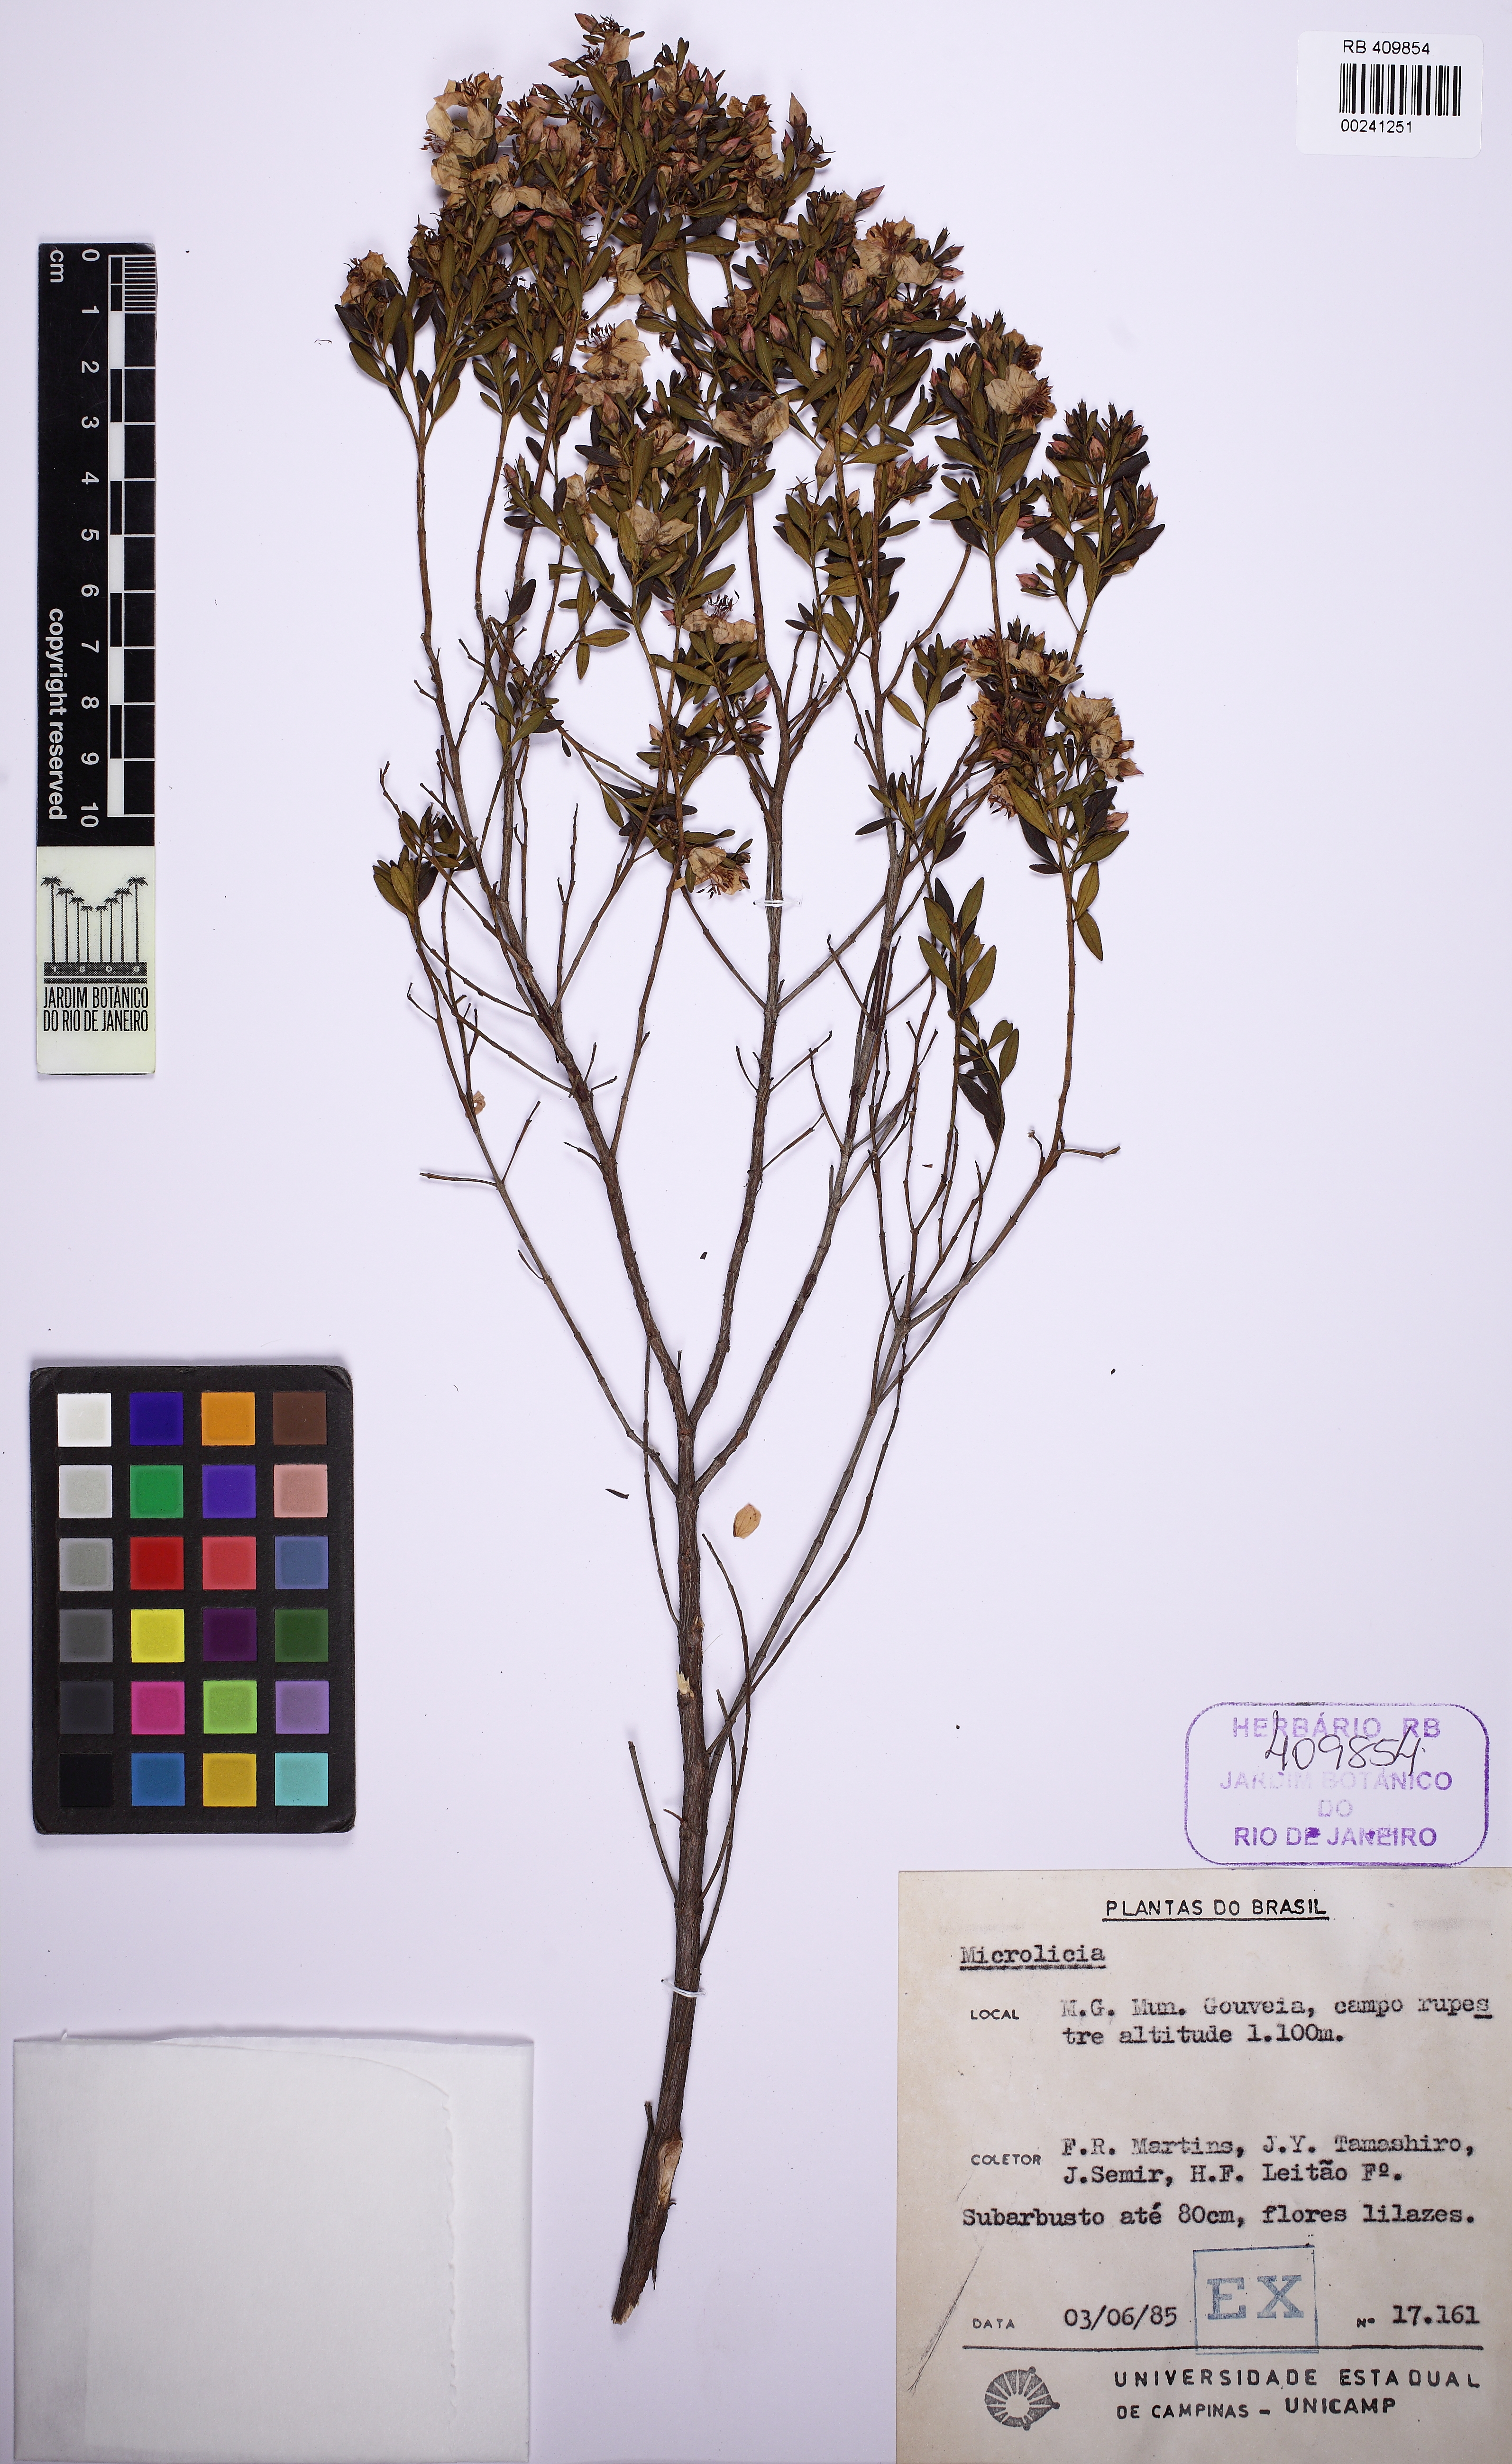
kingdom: Plantae
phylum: Tracheophyta
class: Magnoliopsida
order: Myrtales
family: Melastomataceae
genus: Microlicia
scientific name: Microlicia avicularis
